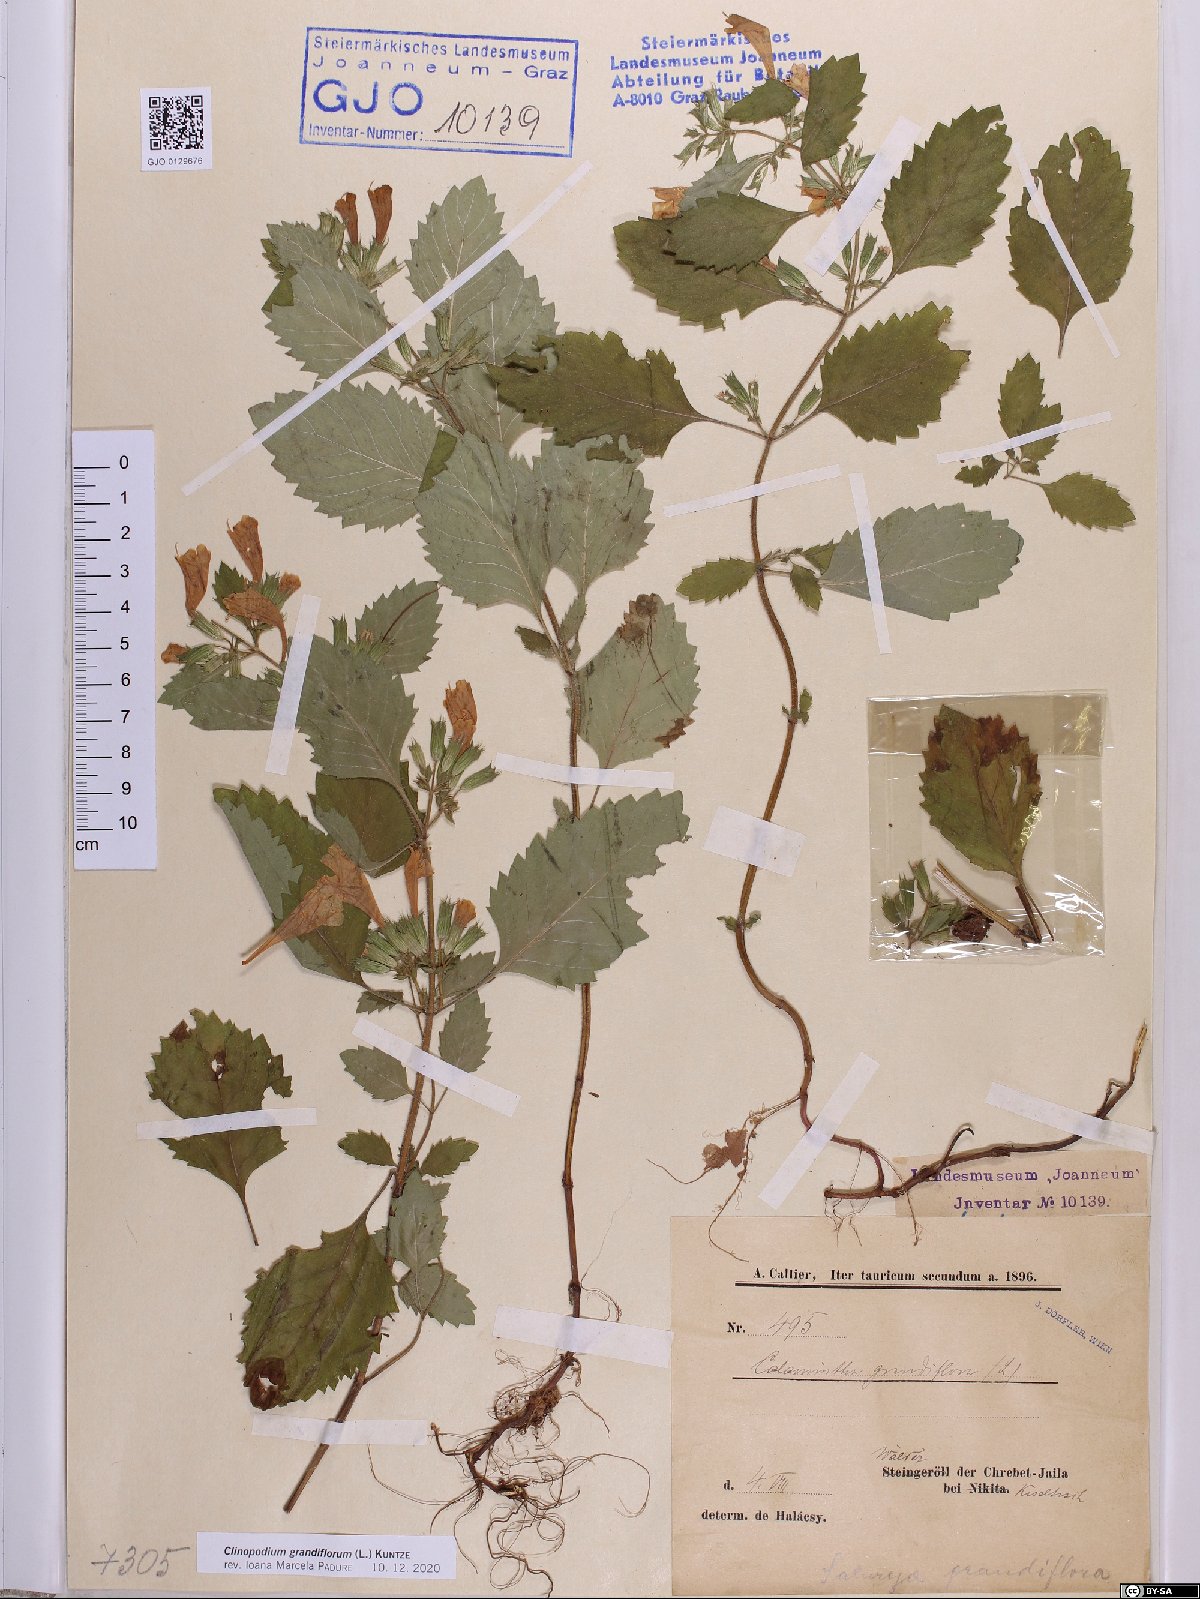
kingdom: Plantae
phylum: Tracheophyta
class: Magnoliopsida
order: Lamiales
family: Lamiaceae
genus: Clinopodium
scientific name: Clinopodium grandiflorum
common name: Greater calamint
